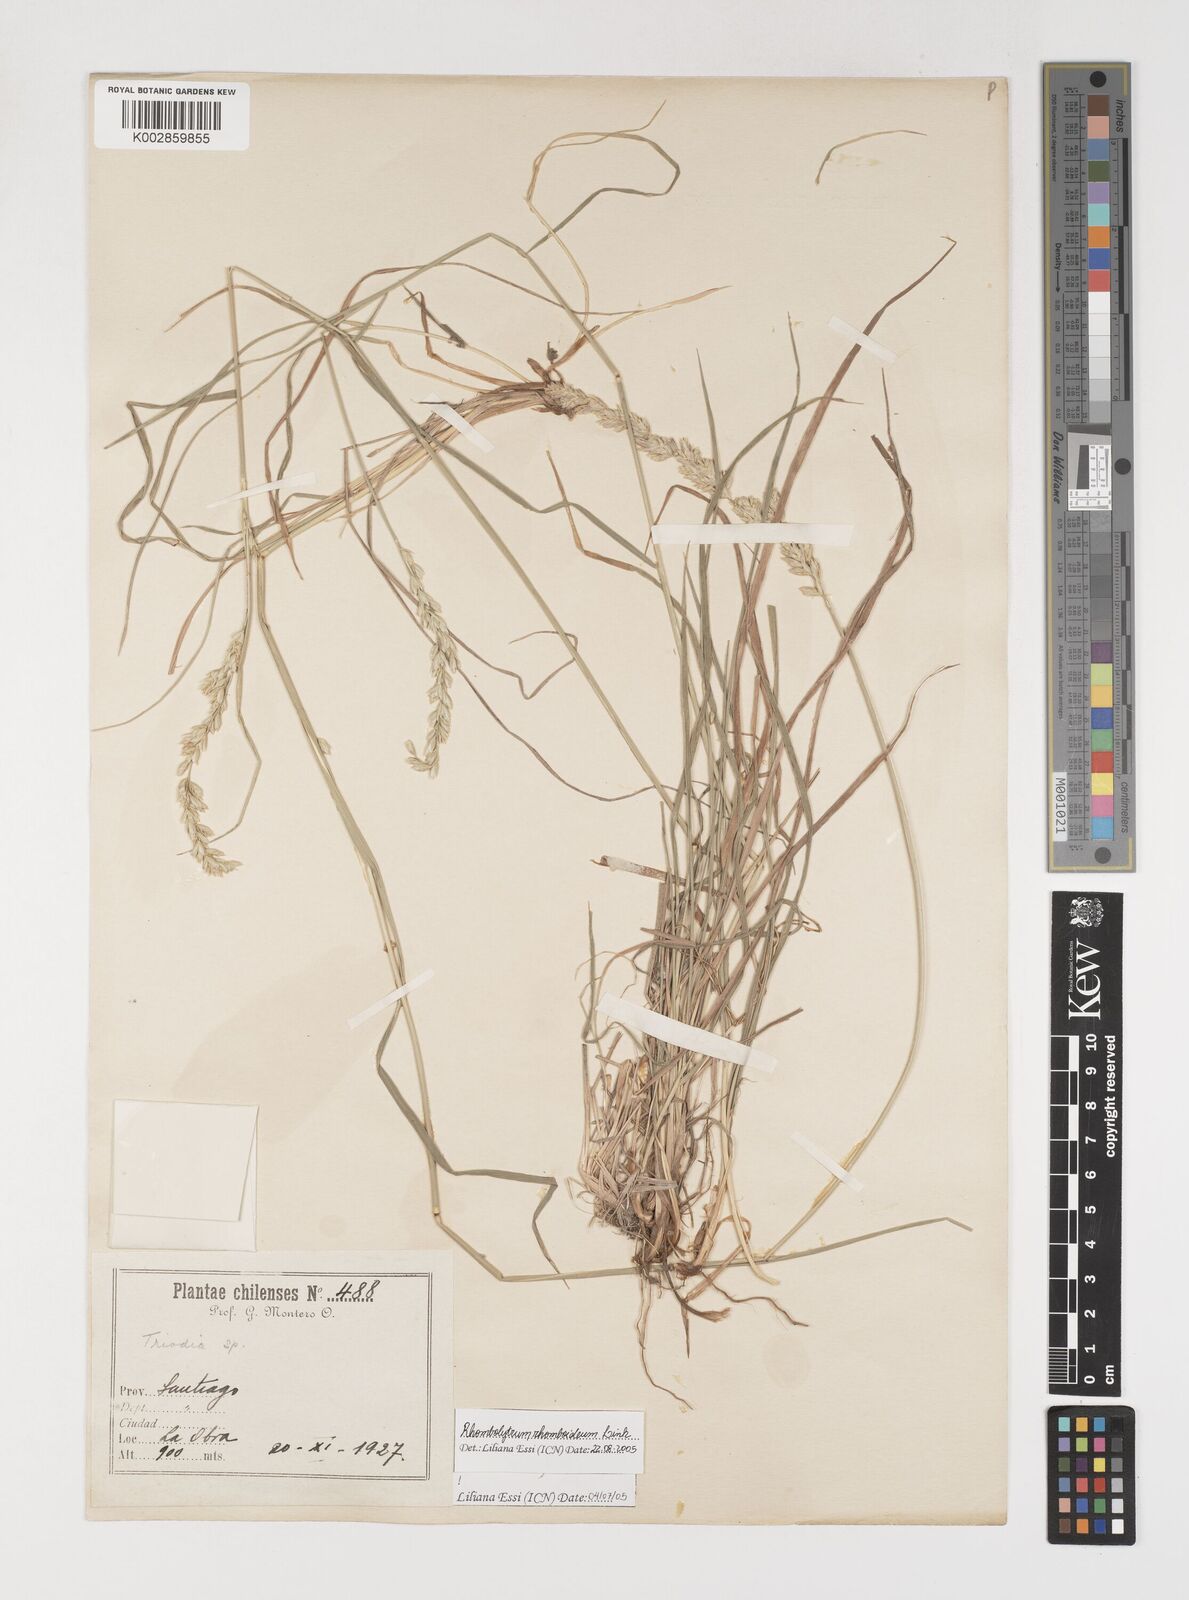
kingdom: Plantae
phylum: Tracheophyta
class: Liliopsida
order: Poales
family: Poaceae
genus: Rhombolytrum
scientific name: Rhombolytrum rhomboideum
